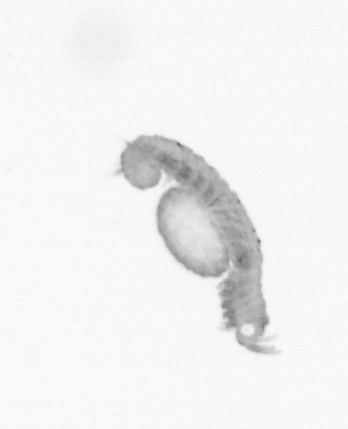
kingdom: Animalia
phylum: Annelida
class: Polychaeta
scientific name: Polychaeta
